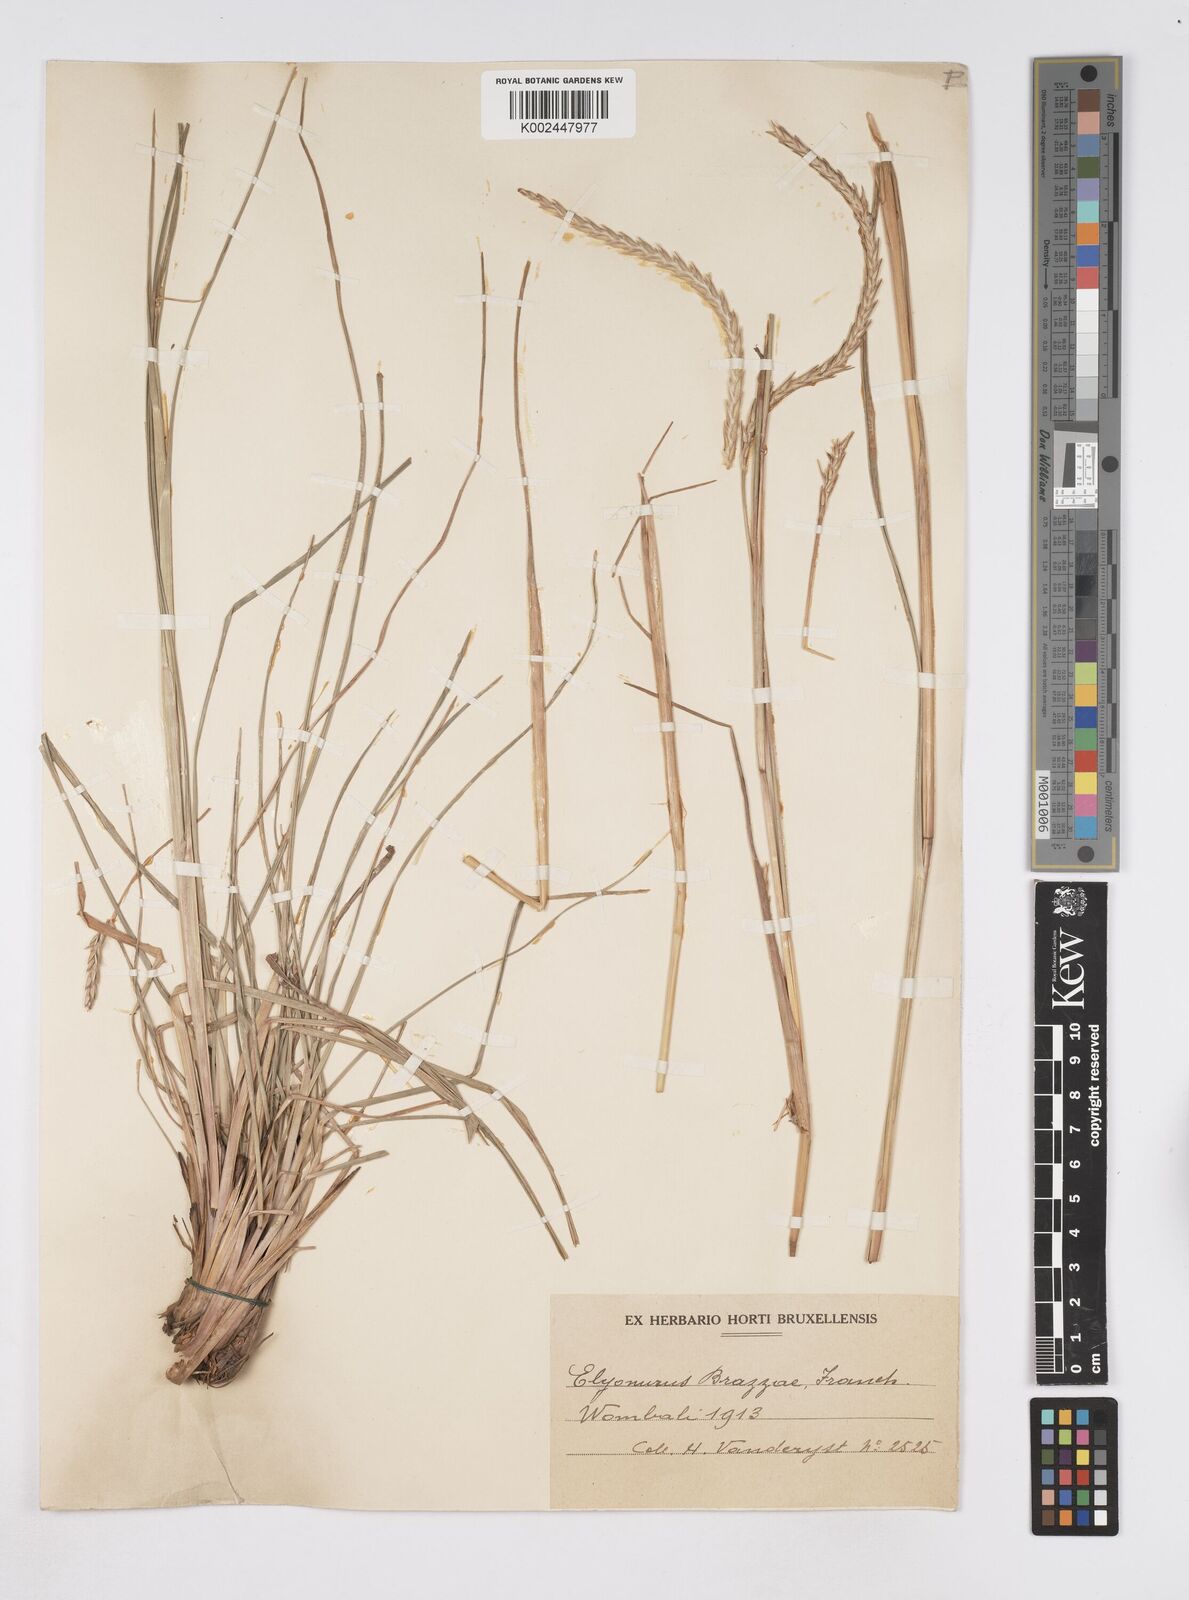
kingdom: Plantae
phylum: Tracheophyta
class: Liliopsida
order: Poales
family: Poaceae
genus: Elionurus
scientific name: Elionurus platypus
